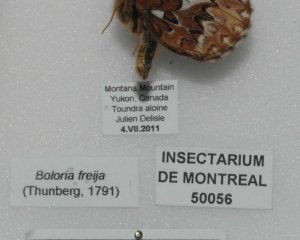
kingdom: Animalia
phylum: Arthropoda
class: Insecta
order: Lepidoptera
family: Nymphalidae
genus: Boloria
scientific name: Boloria freija
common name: Freija Fritillary
